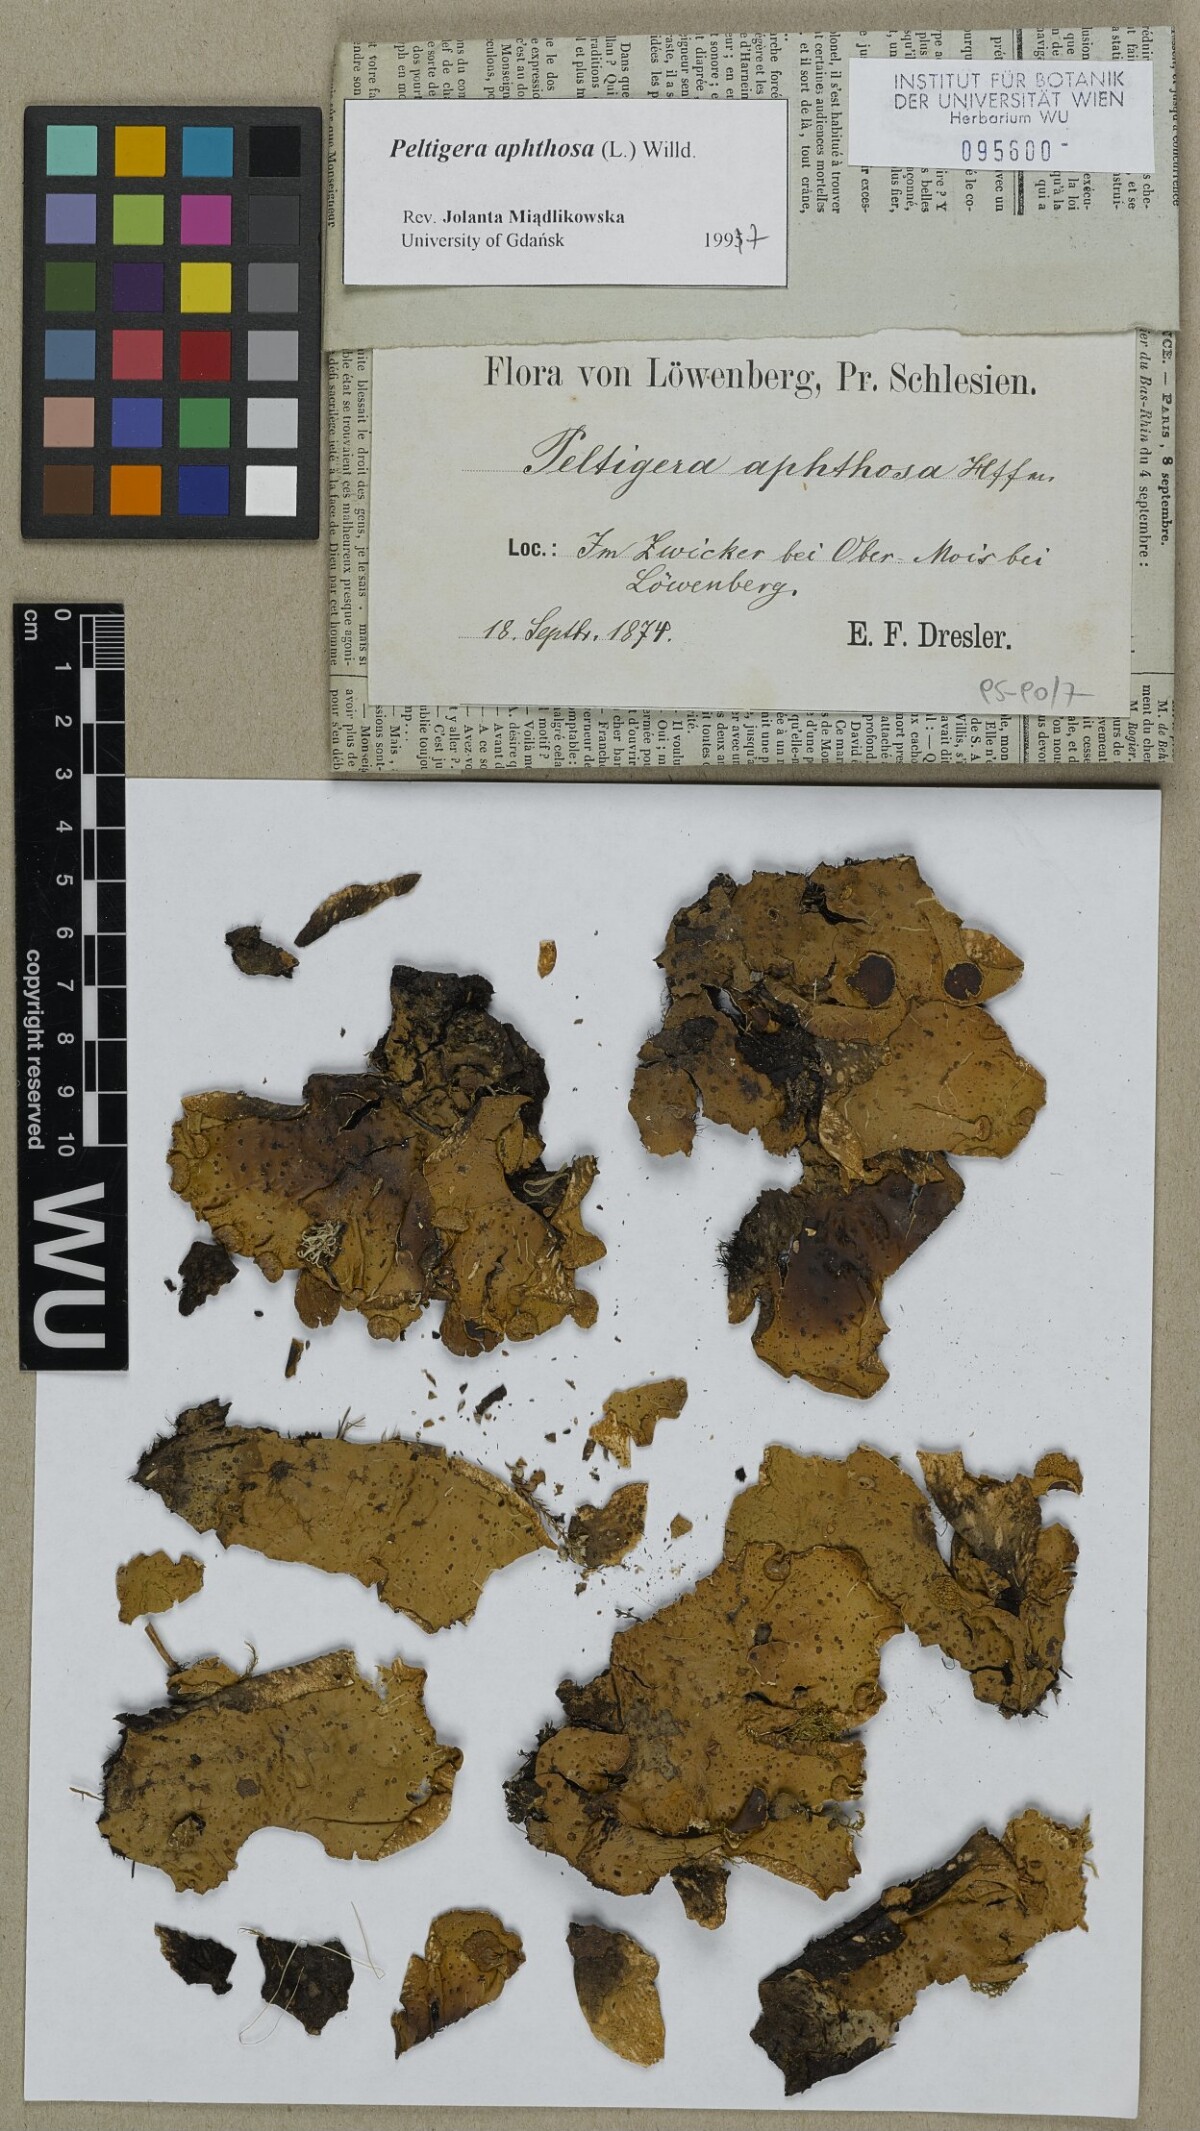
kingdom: Fungi
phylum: Ascomycota
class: Lecanoromycetes
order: Peltigerales
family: Peltigeraceae
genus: Peltigera
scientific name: Peltigera aphthosa
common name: Common freckle pelt lichen
